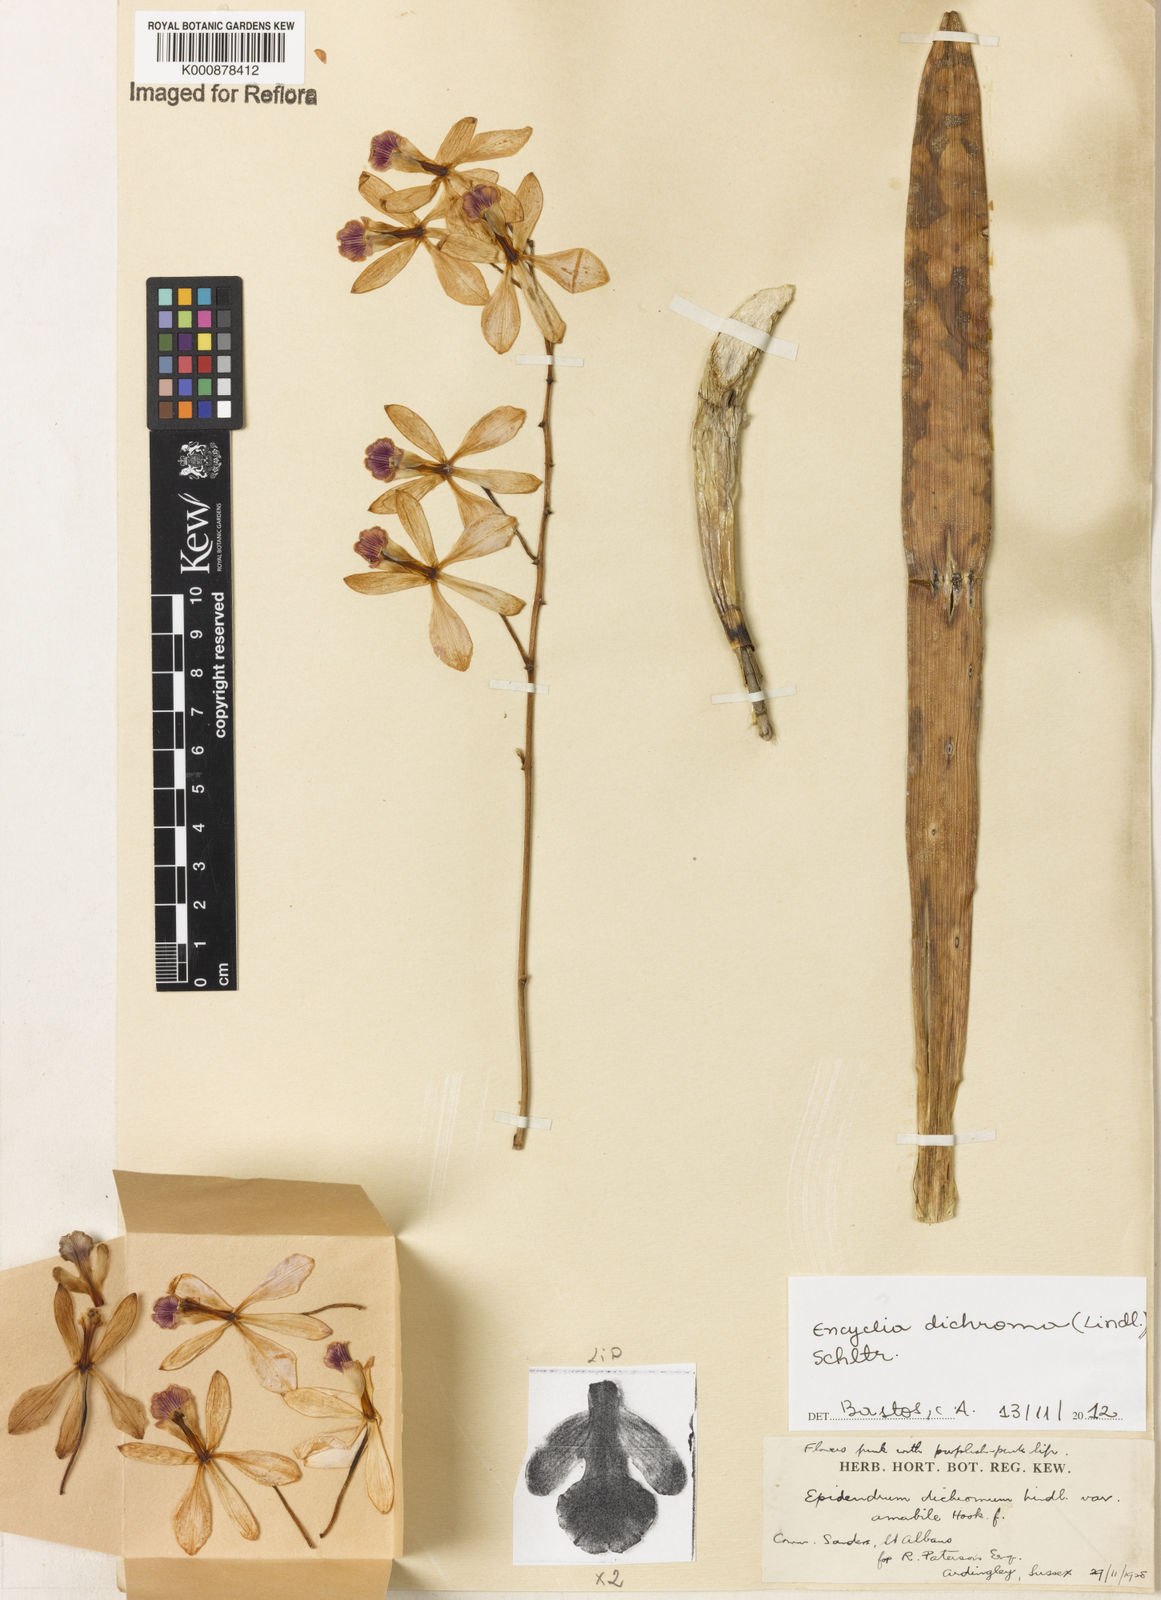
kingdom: Plantae
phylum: Tracheophyta
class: Liliopsida
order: Asparagales
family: Orchidaceae
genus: Encyclia
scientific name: Encyclia cordigera
